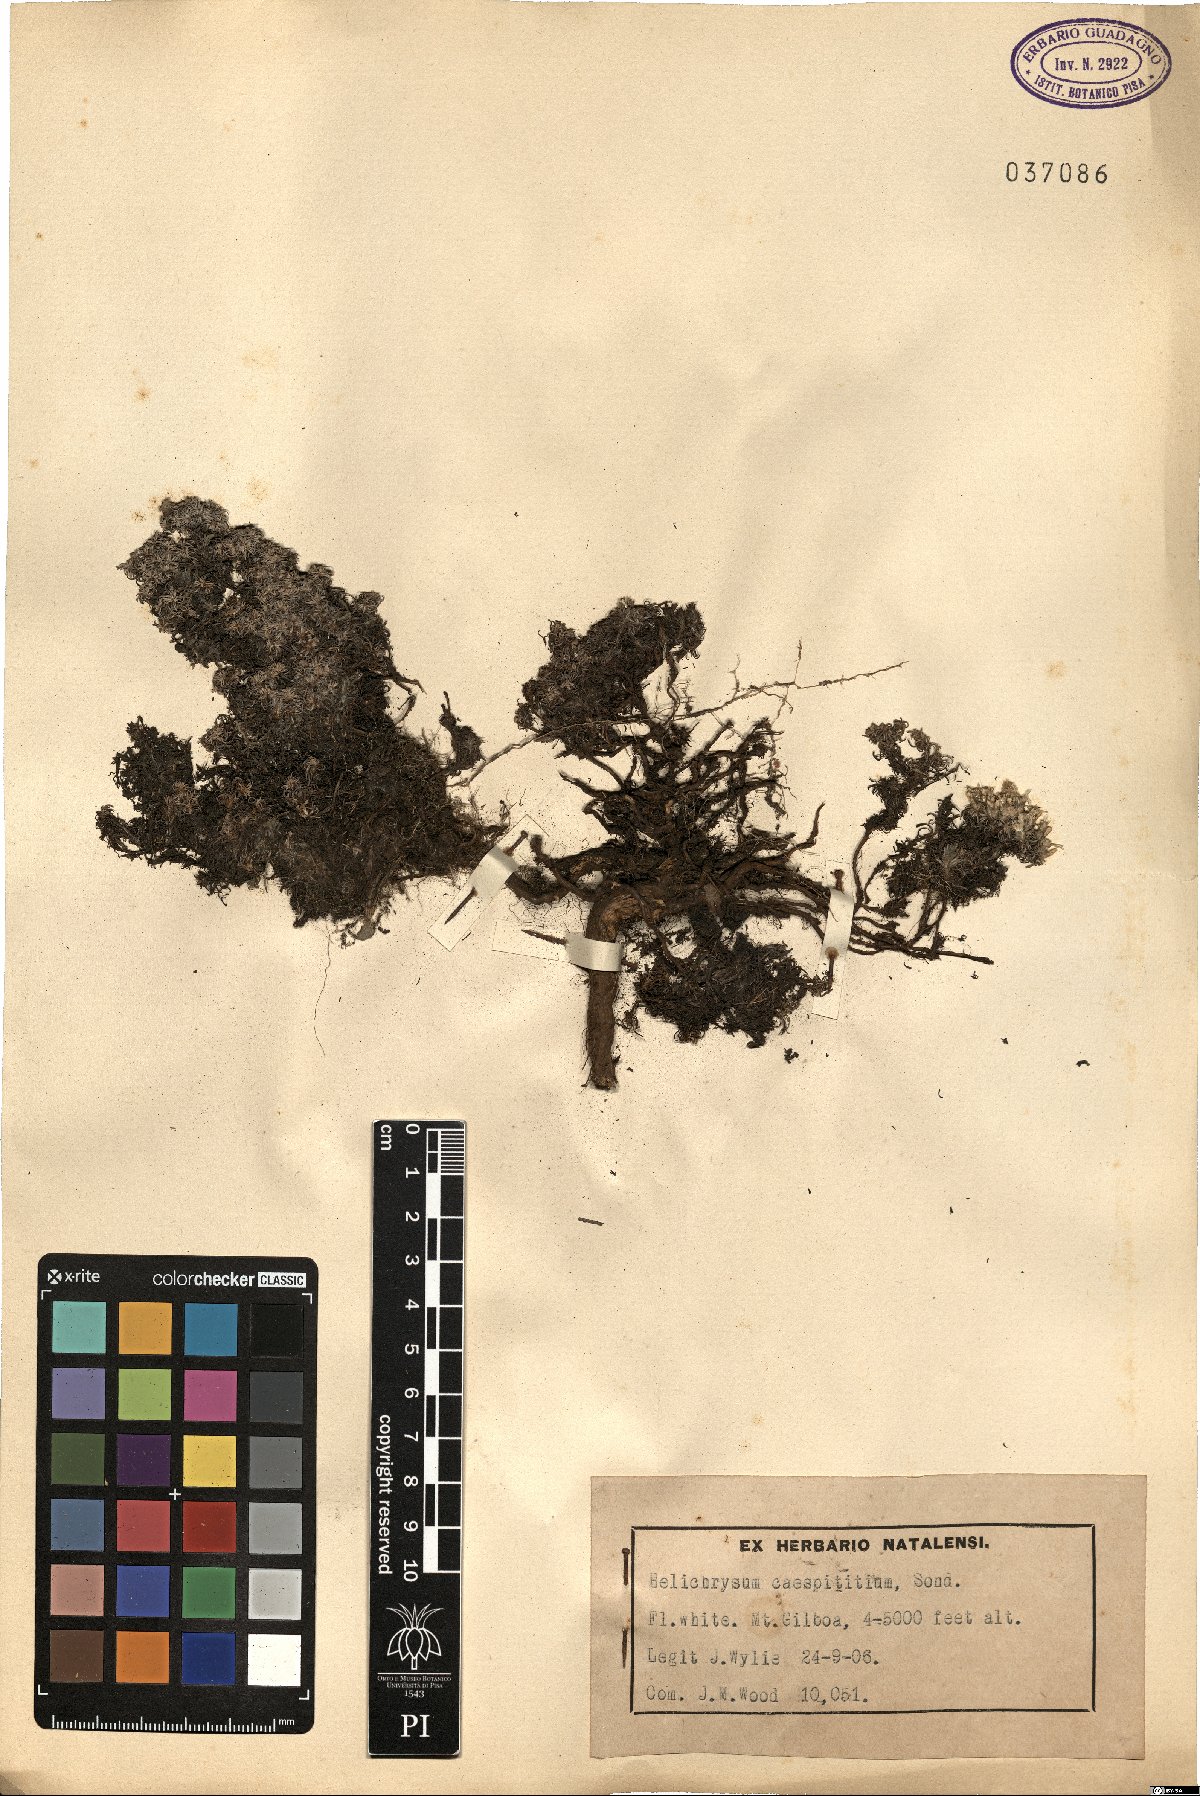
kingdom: Plantae
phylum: Tracheophyta
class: Magnoliopsida
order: Asterales
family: Asteraceae
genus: Helichrysum
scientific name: Helichrysum caespititium
